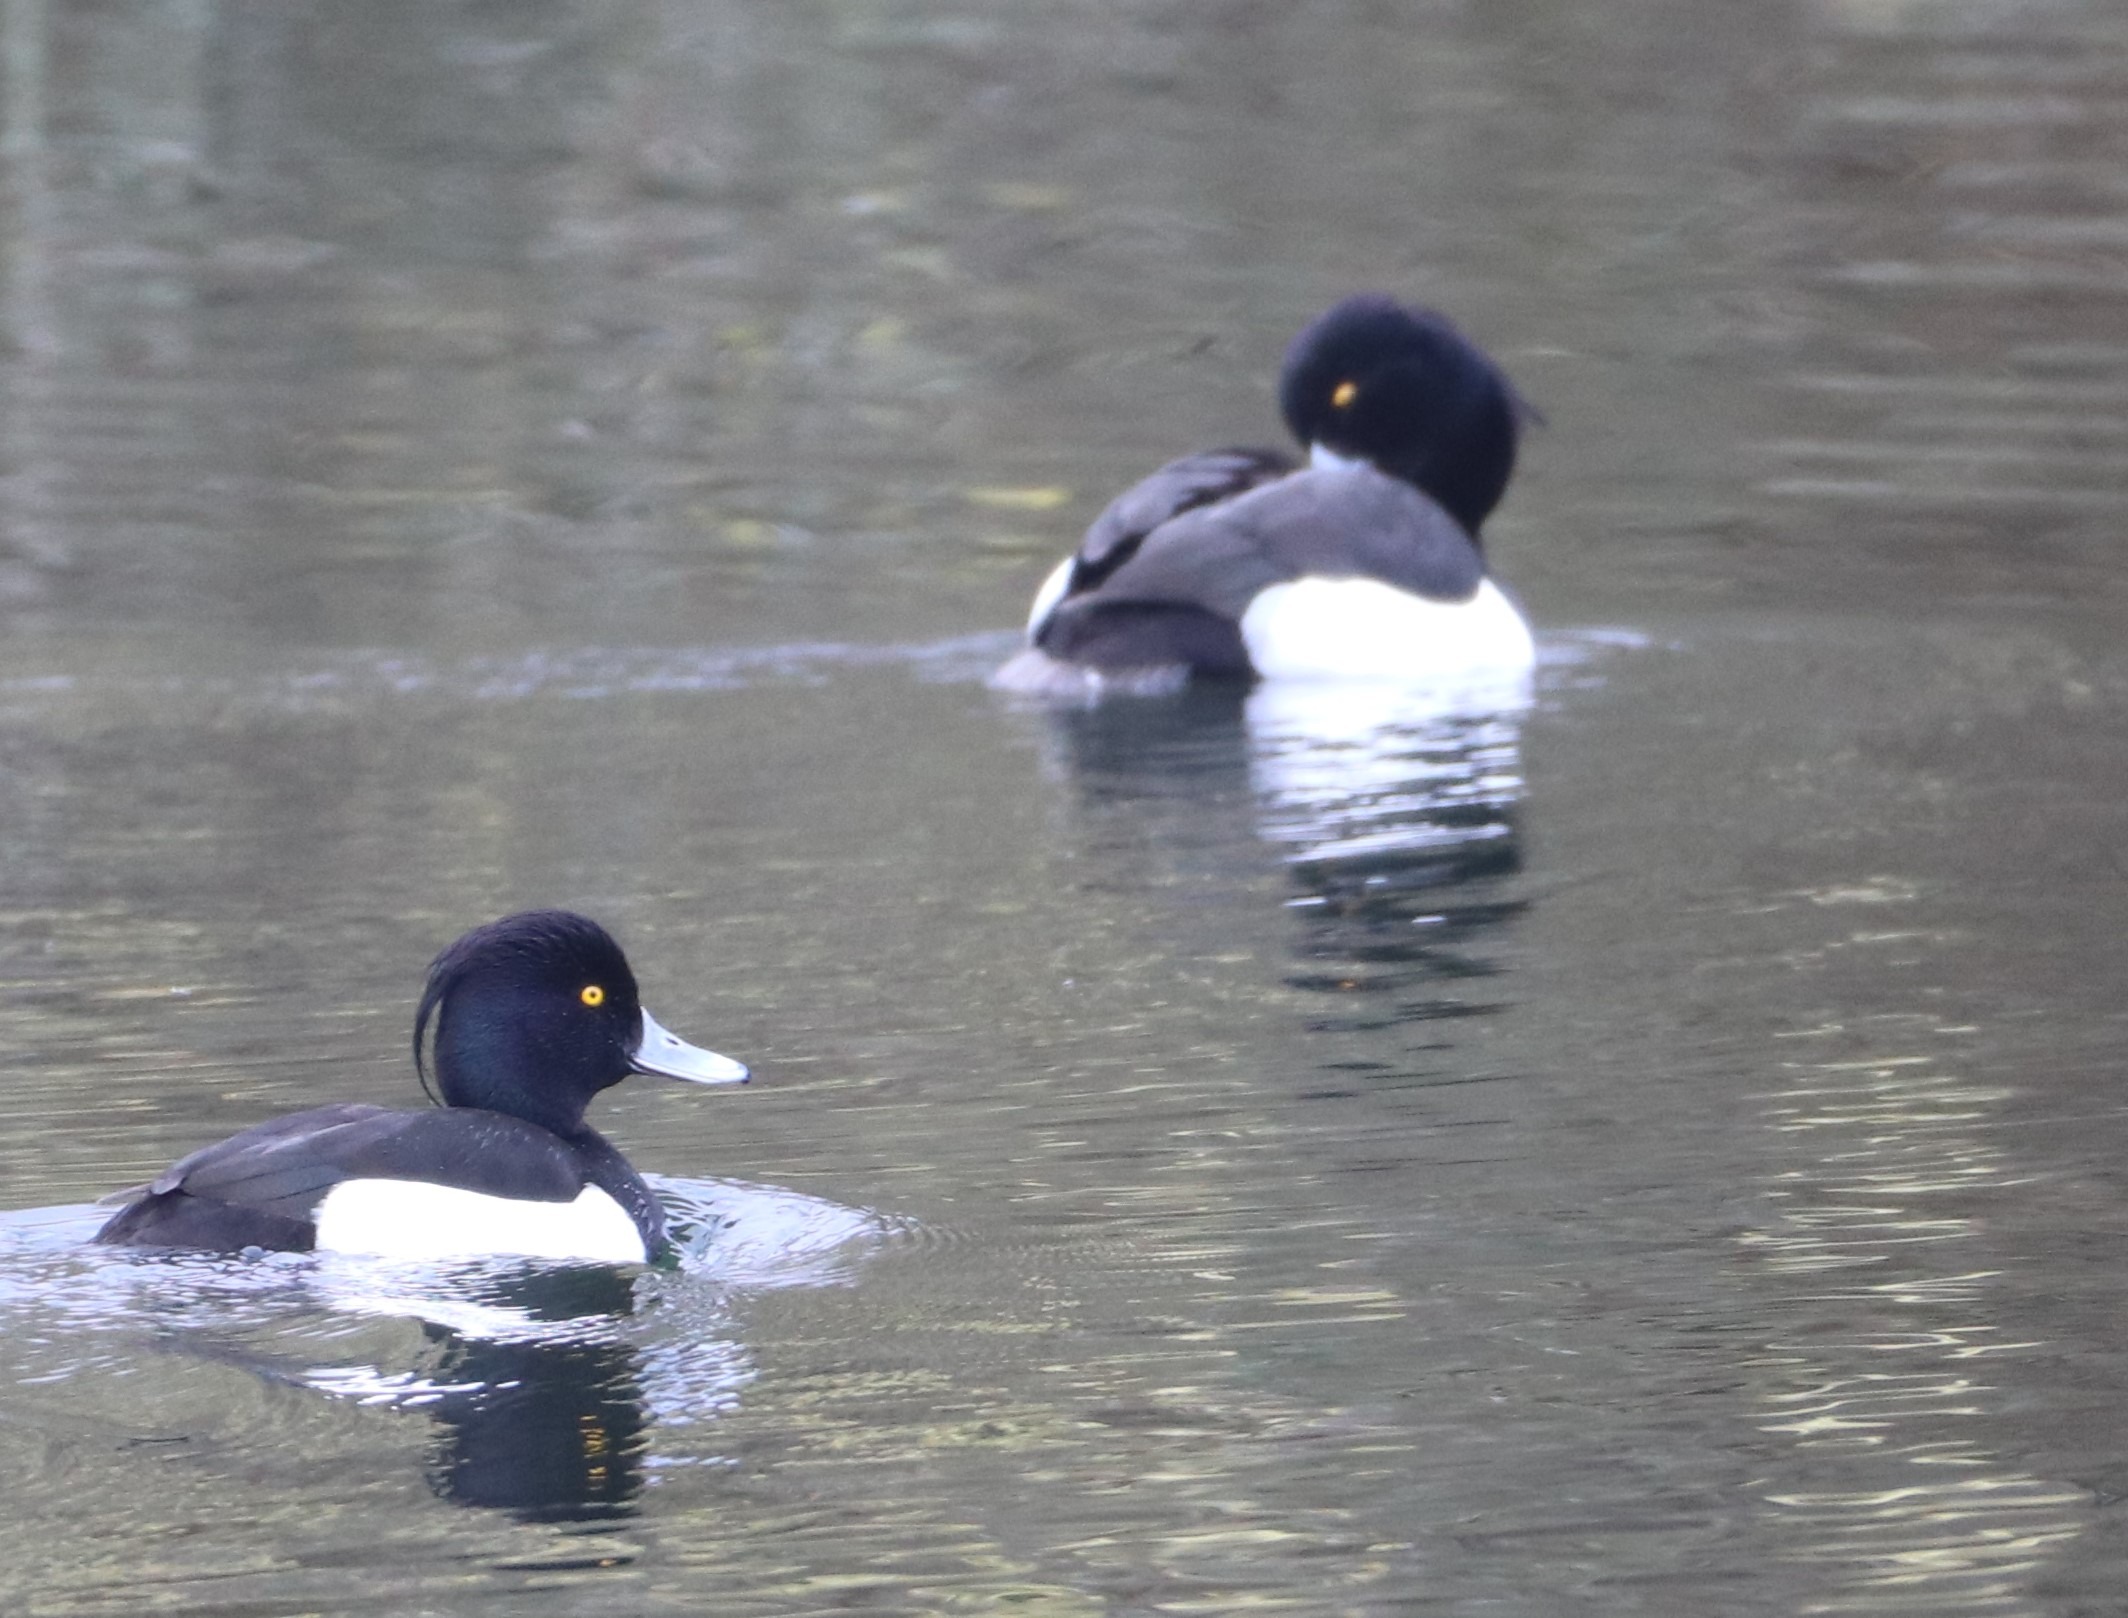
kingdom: Animalia
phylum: Chordata
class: Aves
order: Anseriformes
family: Anatidae
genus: Aythya
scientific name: Aythya fuligula
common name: Troldand
